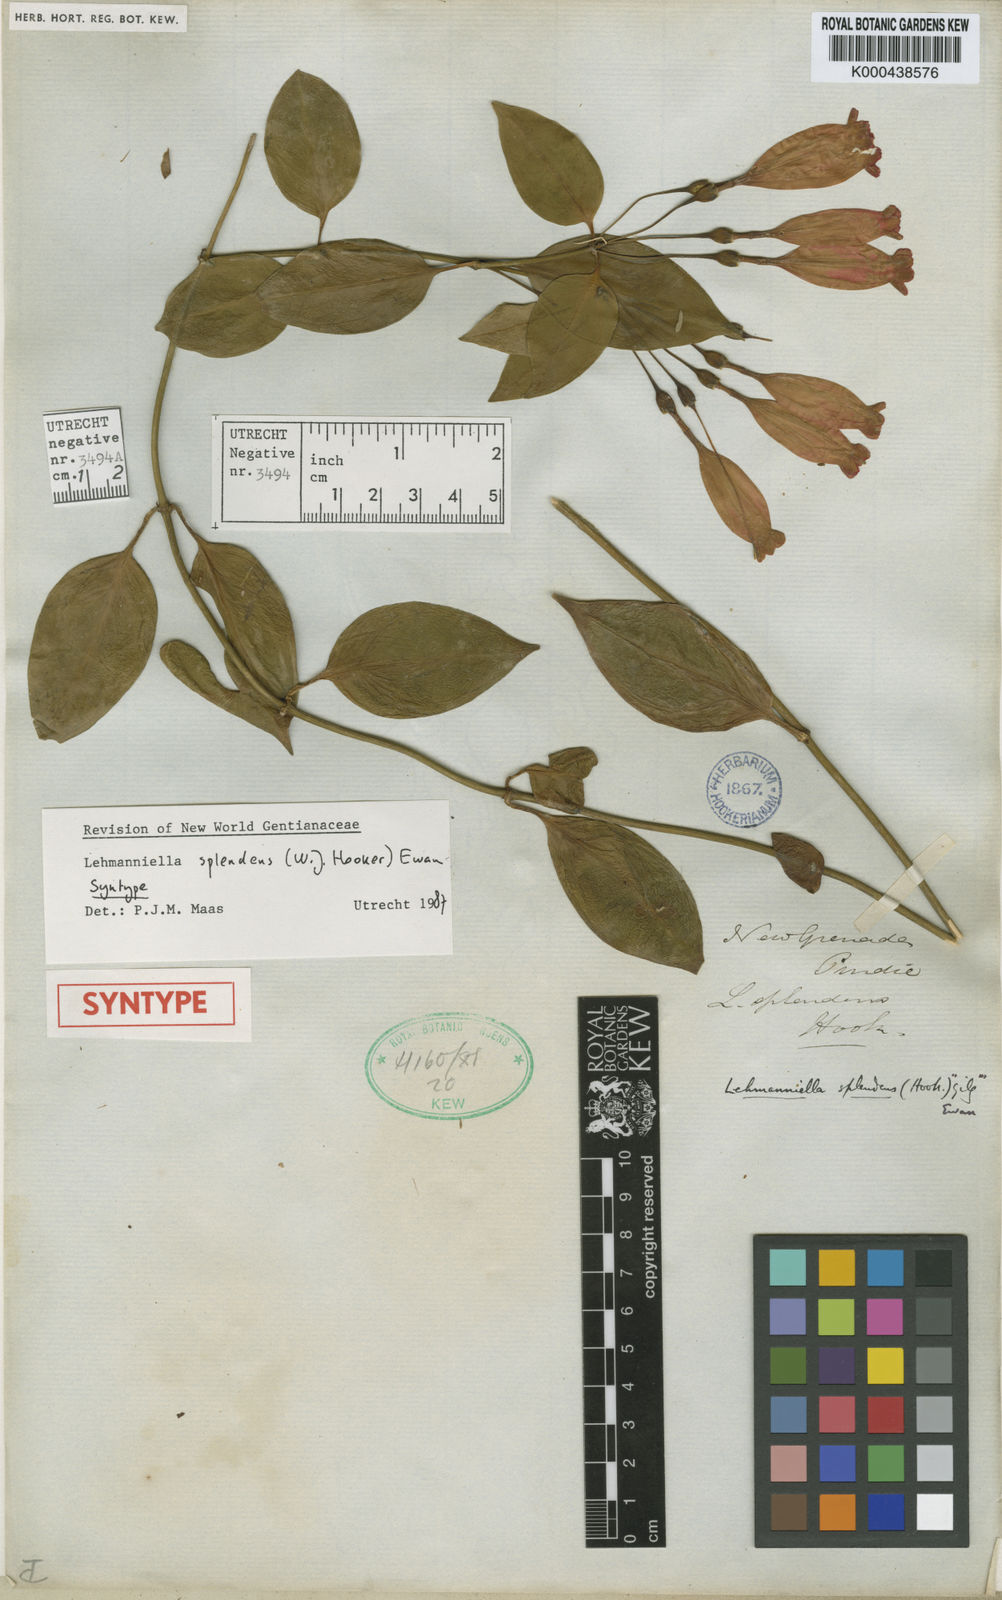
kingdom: Plantae
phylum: Tracheophyta
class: Magnoliopsida
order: Gentianales
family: Gentianaceae
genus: Lehmanniella
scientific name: Lehmanniella splendens
